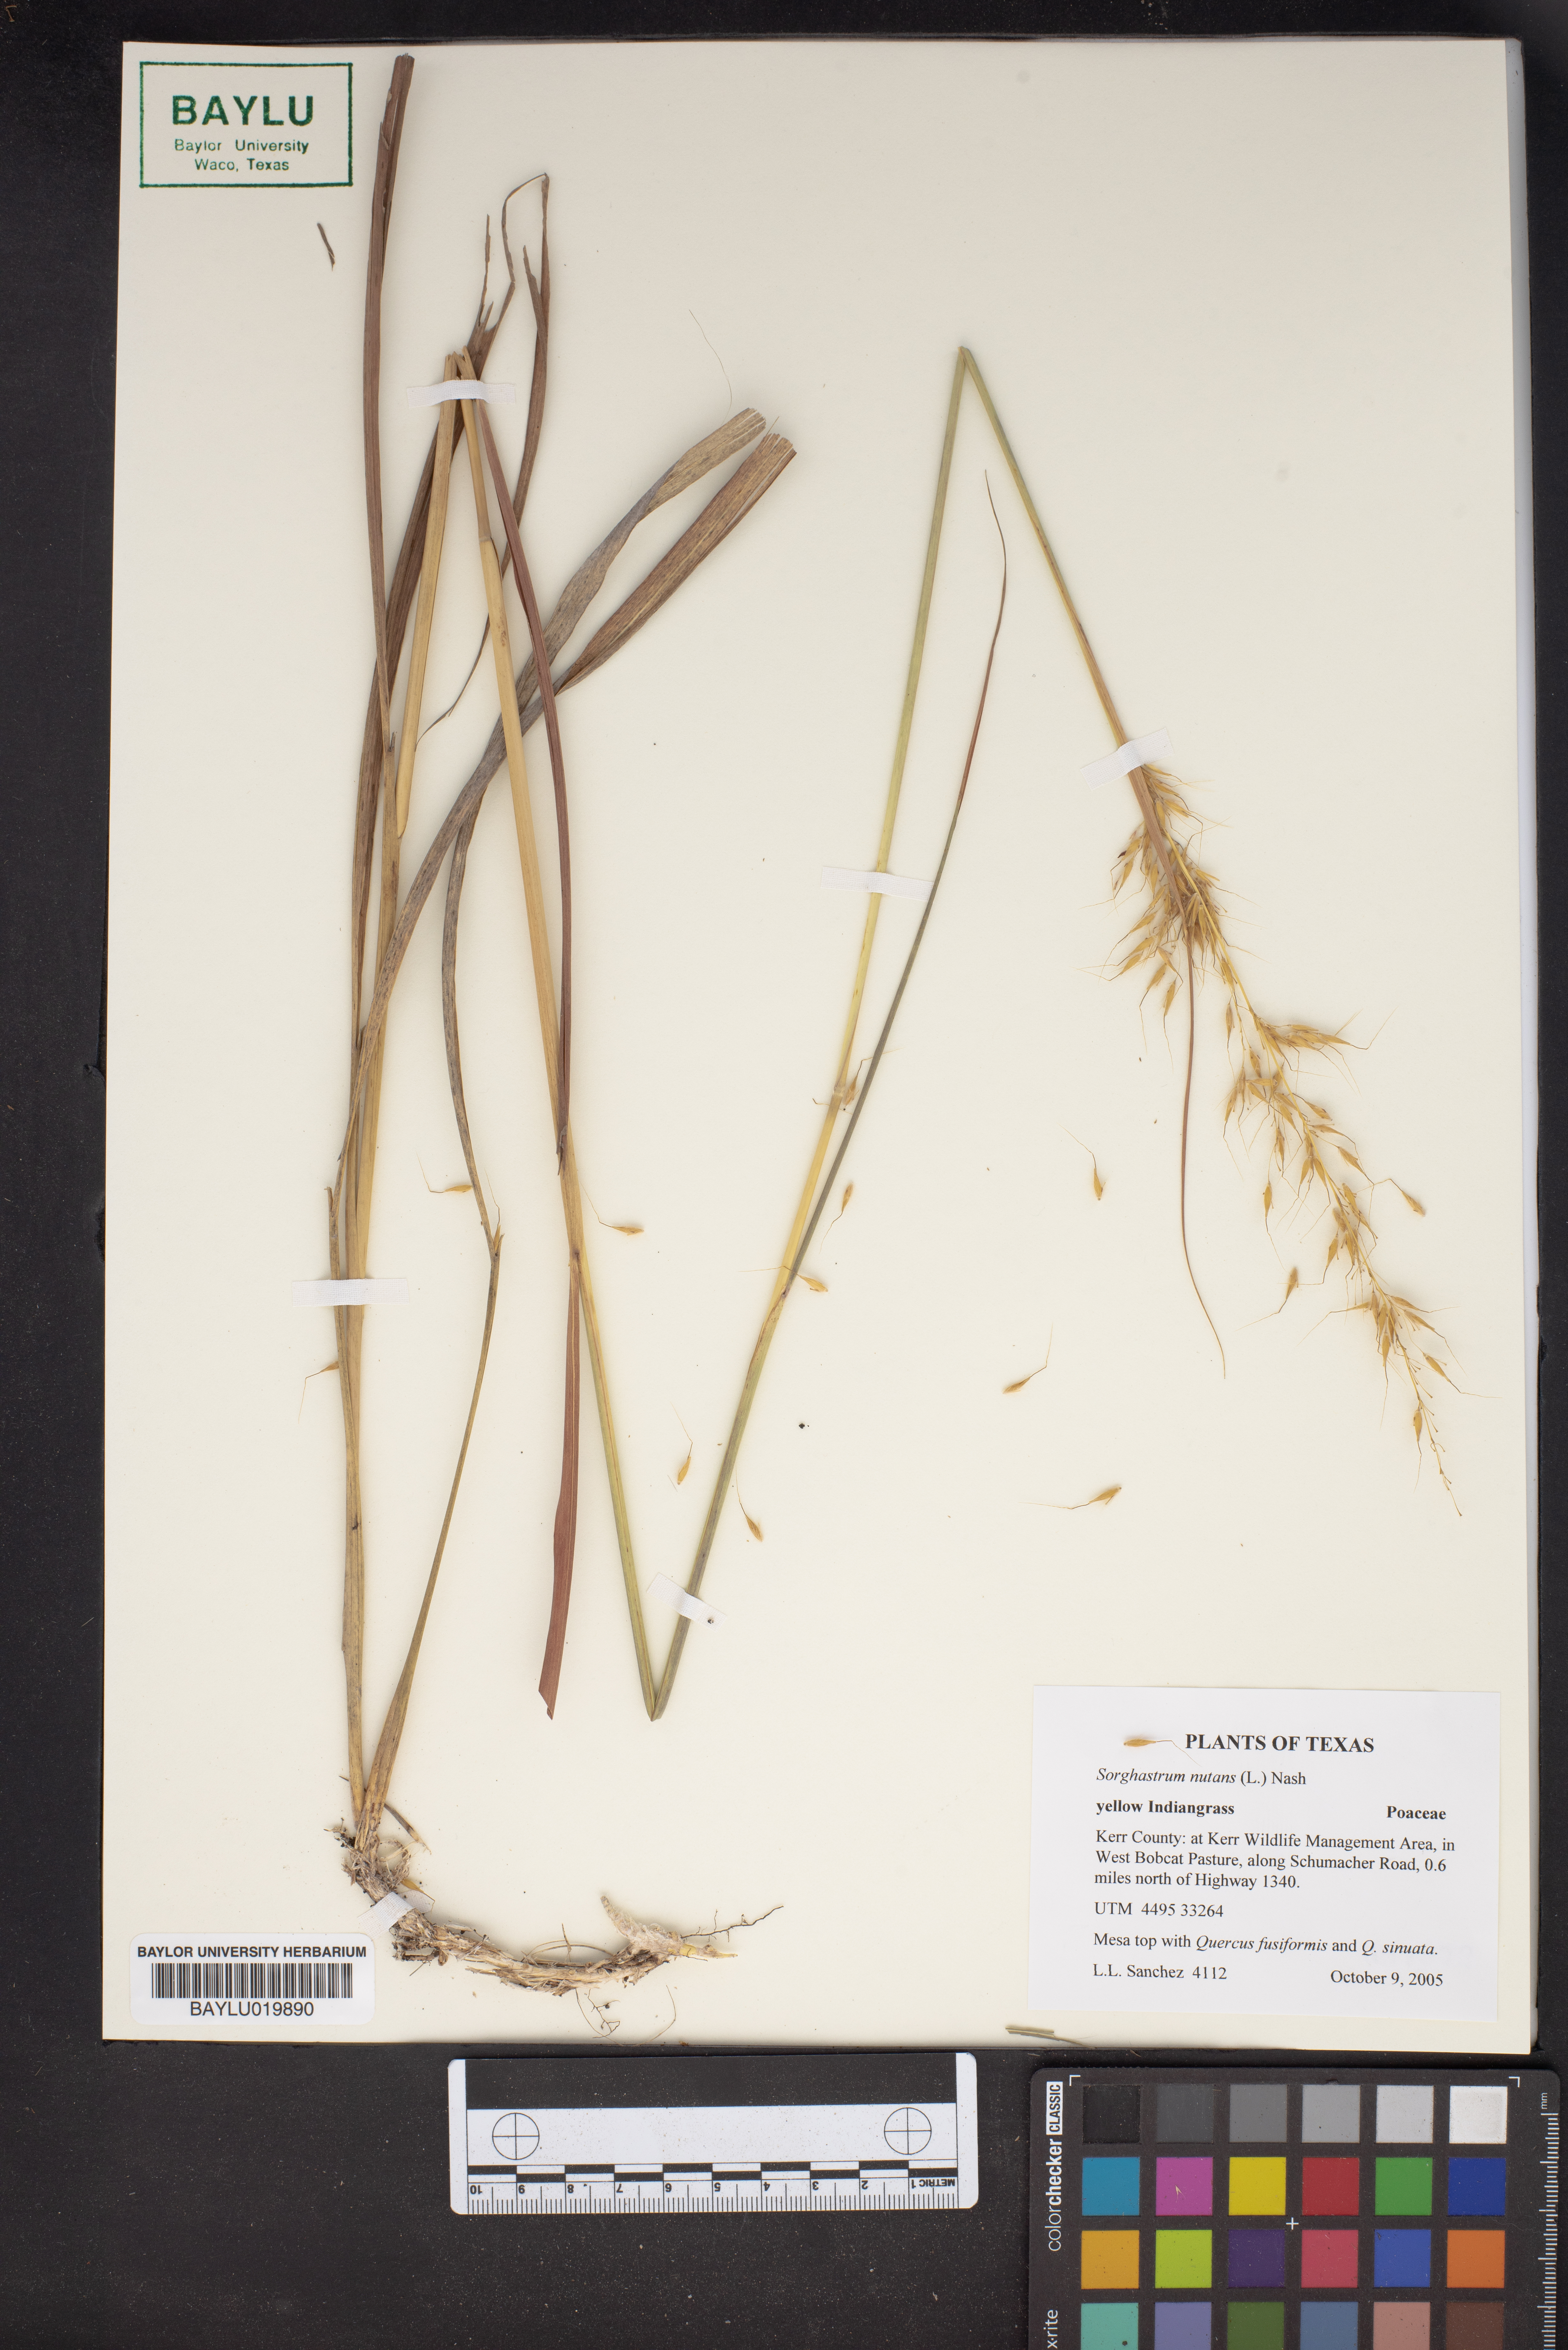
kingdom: Plantae
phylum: Tracheophyta
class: Liliopsida
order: Poales
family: Poaceae
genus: Sorghastrum
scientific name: Sorghastrum nutans
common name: Indian grass
